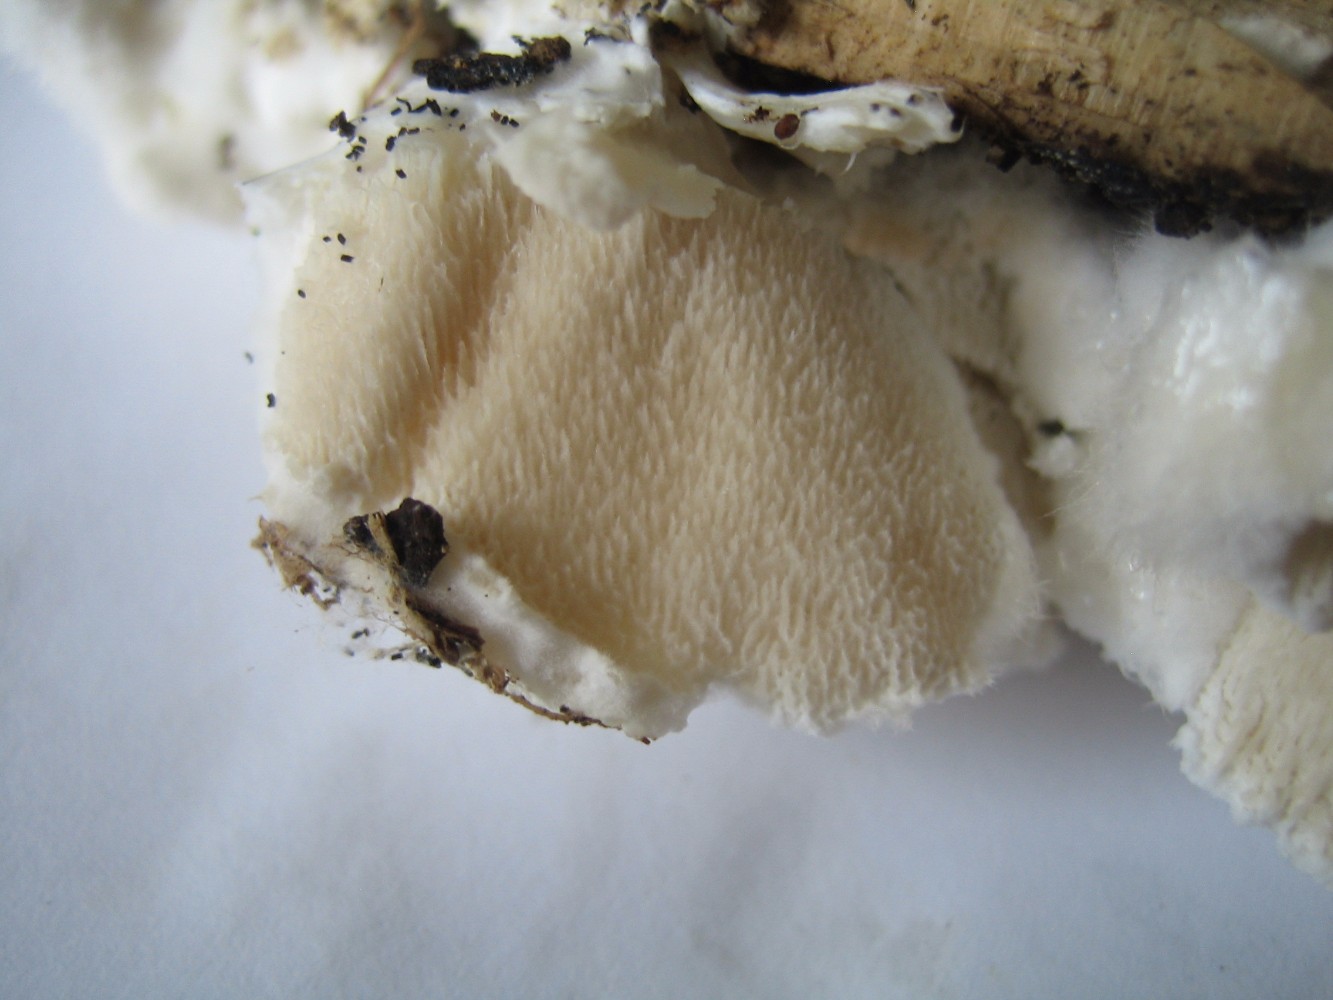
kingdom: Fungi
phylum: Basidiomycota
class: Agaricomycetes
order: Polyporales
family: Dacryobolaceae
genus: Postia
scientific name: Postia ptychogaster
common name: støvende kødporesvamp
